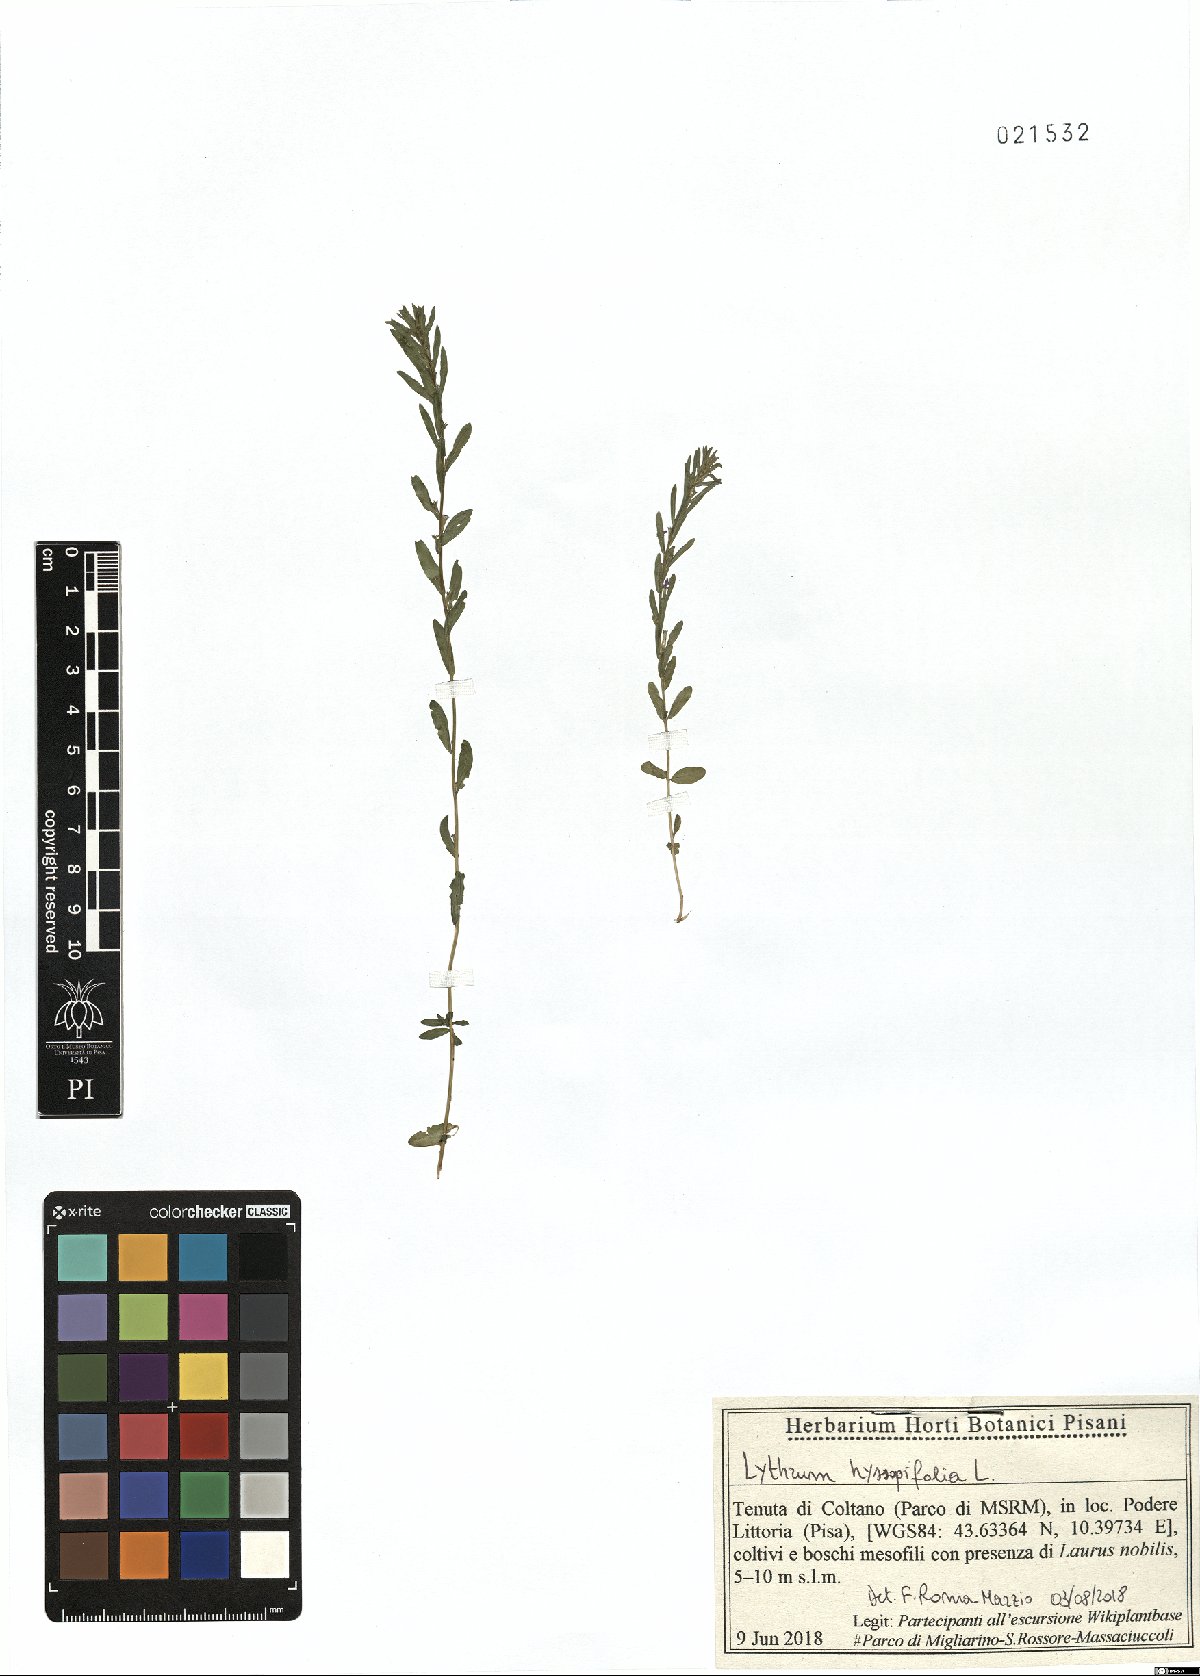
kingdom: Plantae
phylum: Tracheophyta
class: Magnoliopsida
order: Myrtales
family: Lythraceae
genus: Lythrum
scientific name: Lythrum hyssopifolia
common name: Grass-poly
